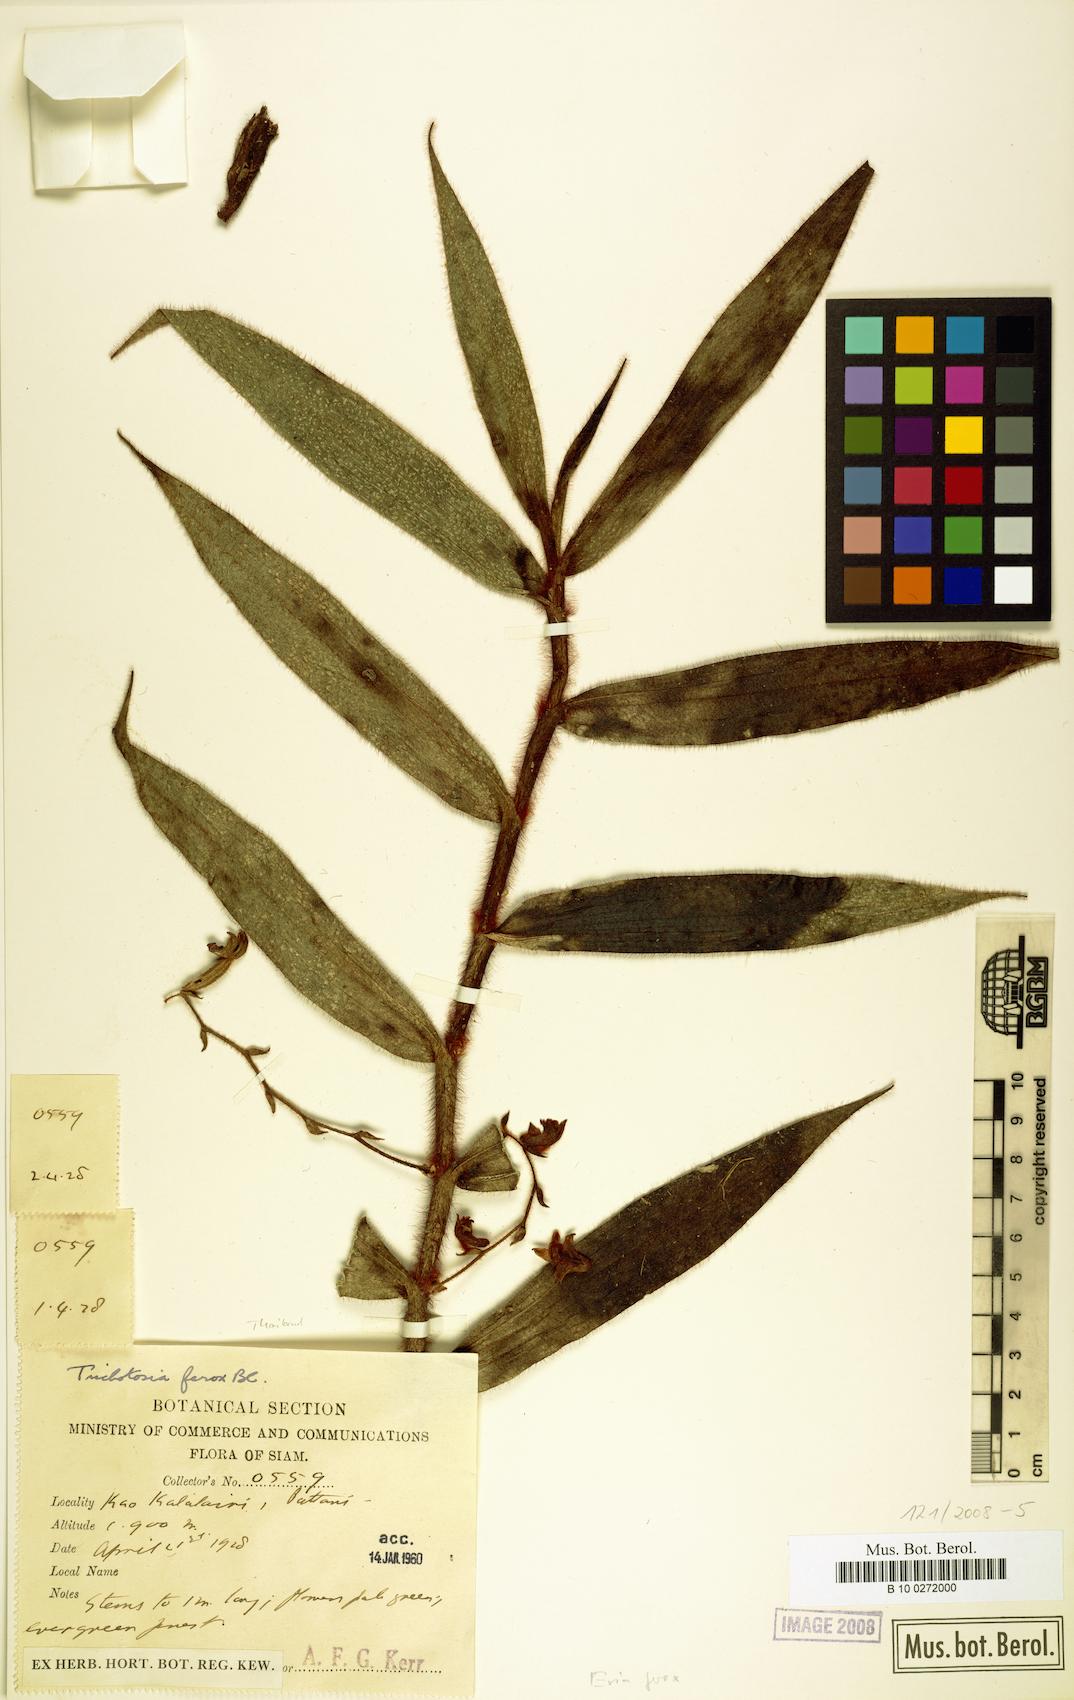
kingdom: Plantae
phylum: Tracheophyta
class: Liliopsida
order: Asparagales
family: Orchidaceae
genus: Trichotosia
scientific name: Trichotosia ferox
